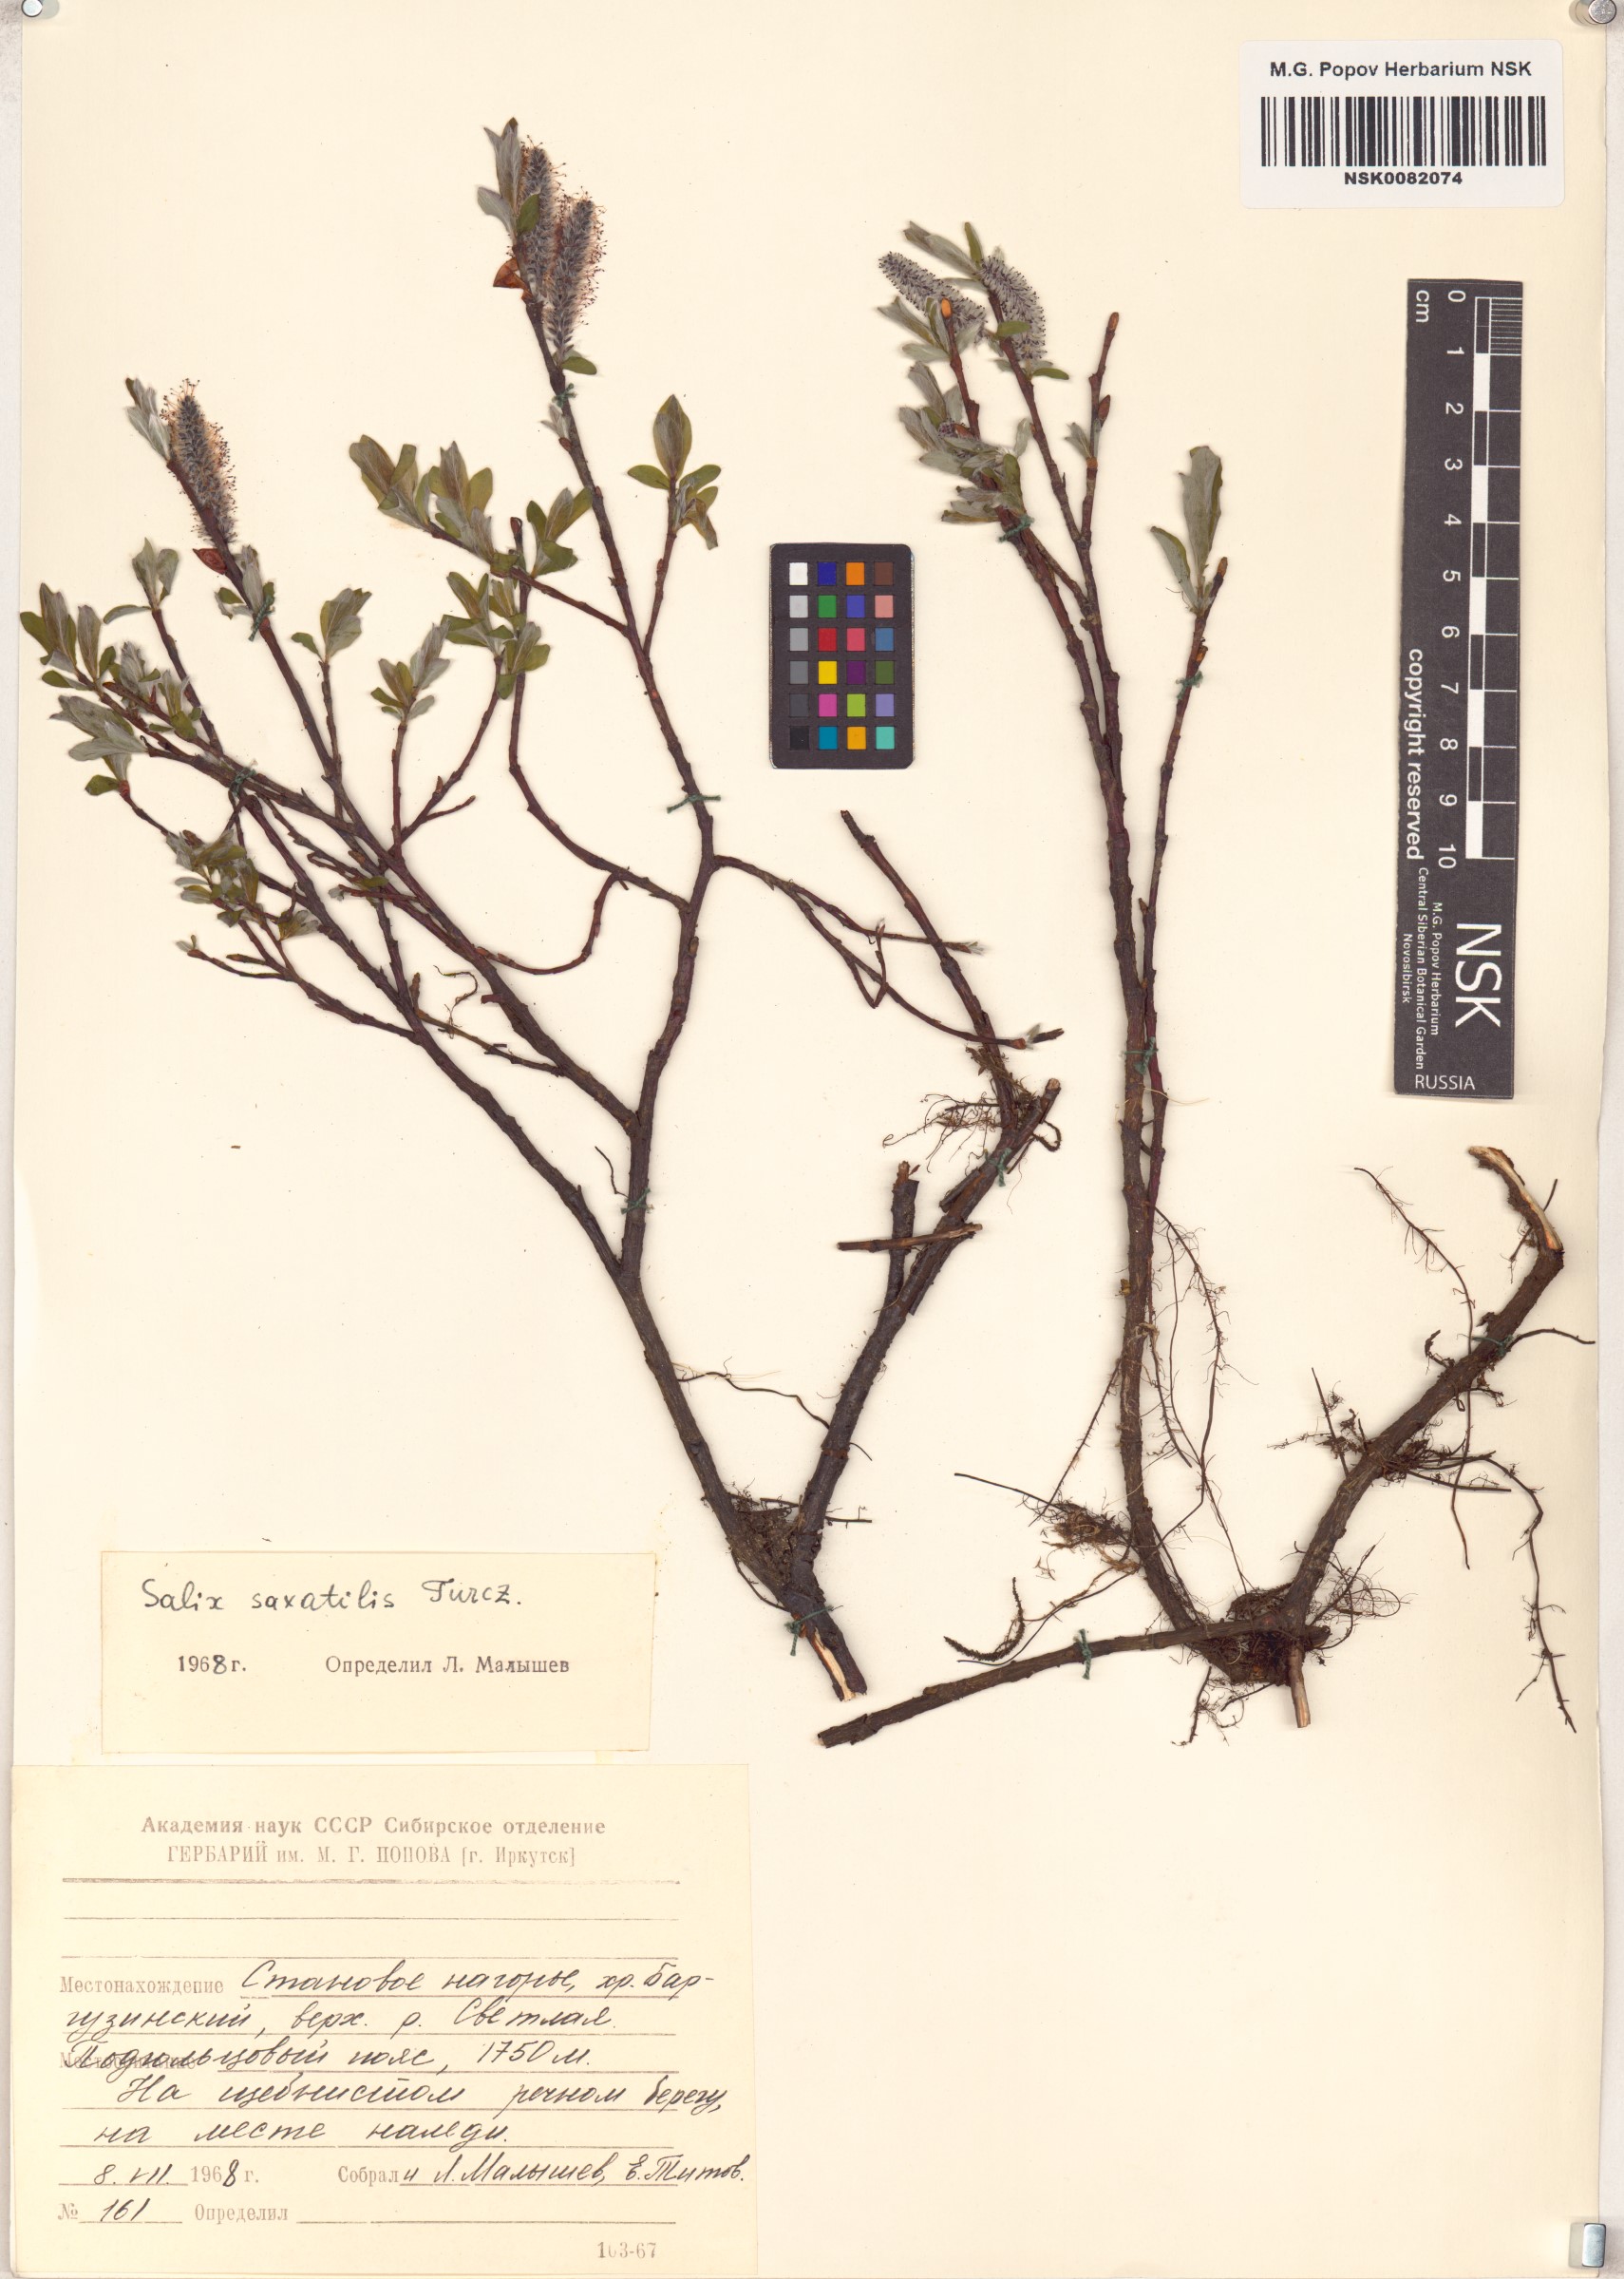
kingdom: Plantae
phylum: Tracheophyta
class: Magnoliopsida
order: Malpighiales
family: Salicaceae
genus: Salix
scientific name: Salix saxatilis
